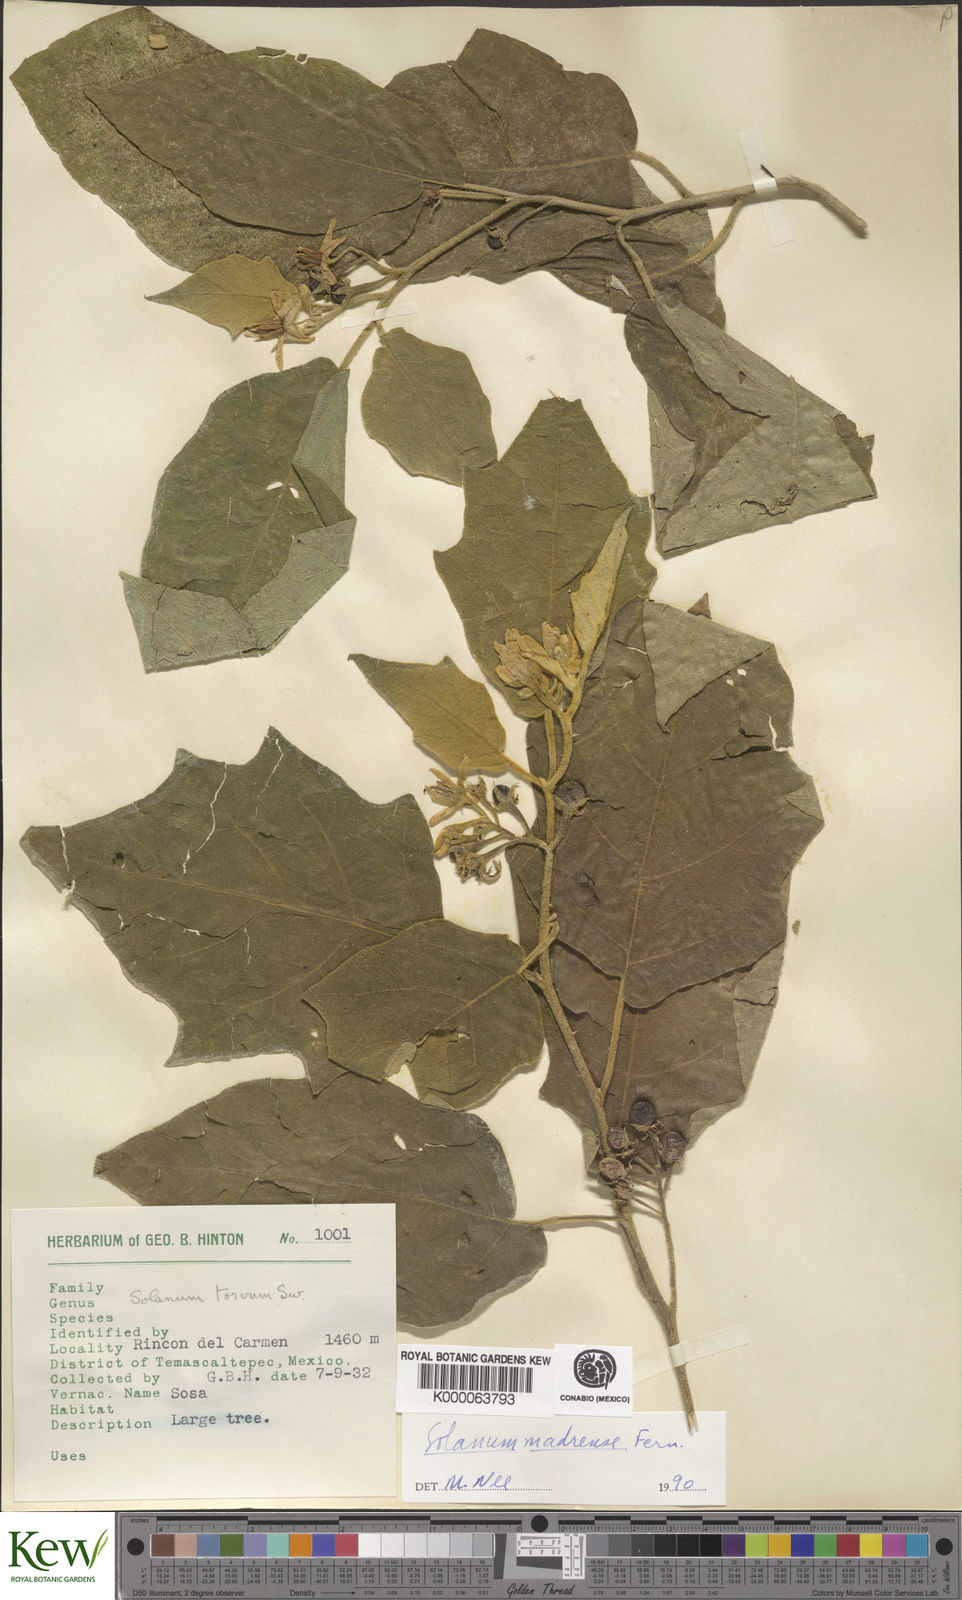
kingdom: Plantae
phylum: Tracheophyta
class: Magnoliopsida
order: Solanales
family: Solanaceae
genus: Solanum
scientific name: Solanum ferrugineum
